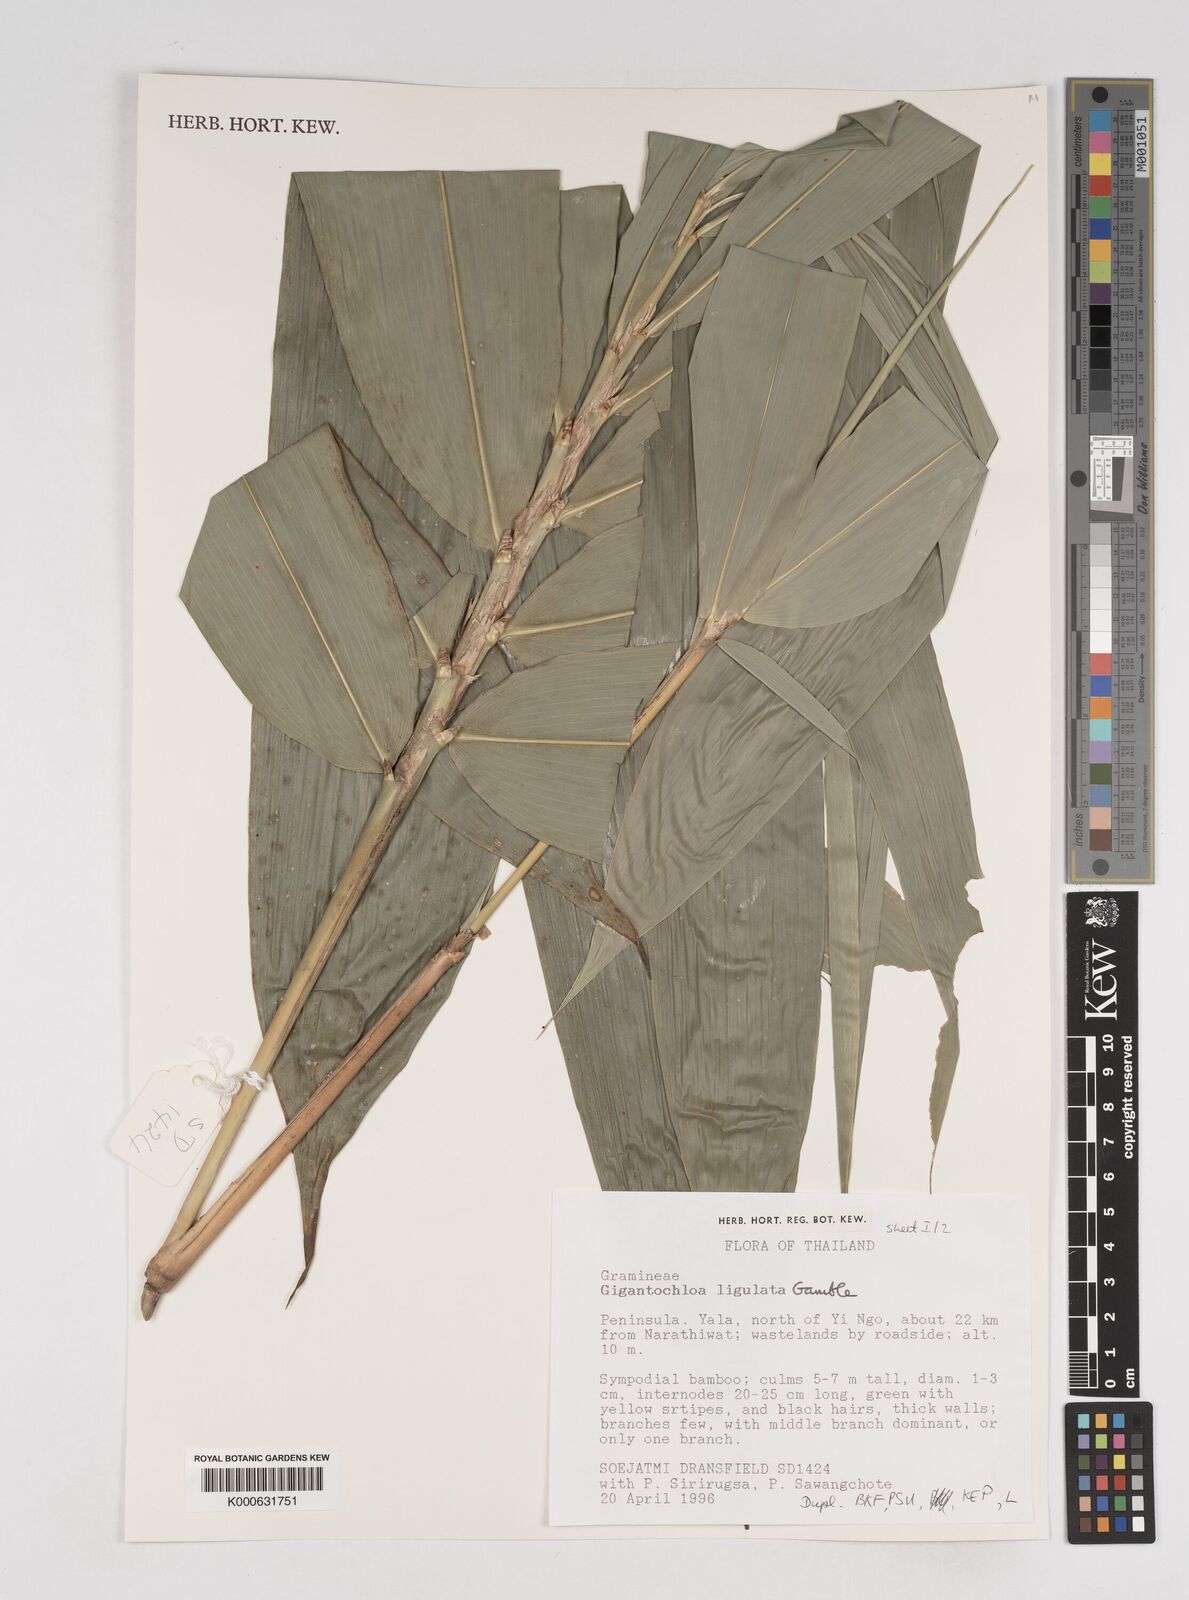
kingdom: Plantae
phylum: Tracheophyta
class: Liliopsida
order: Poales
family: Poaceae
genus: Gigantochloa
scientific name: Gigantochloa ligulata
